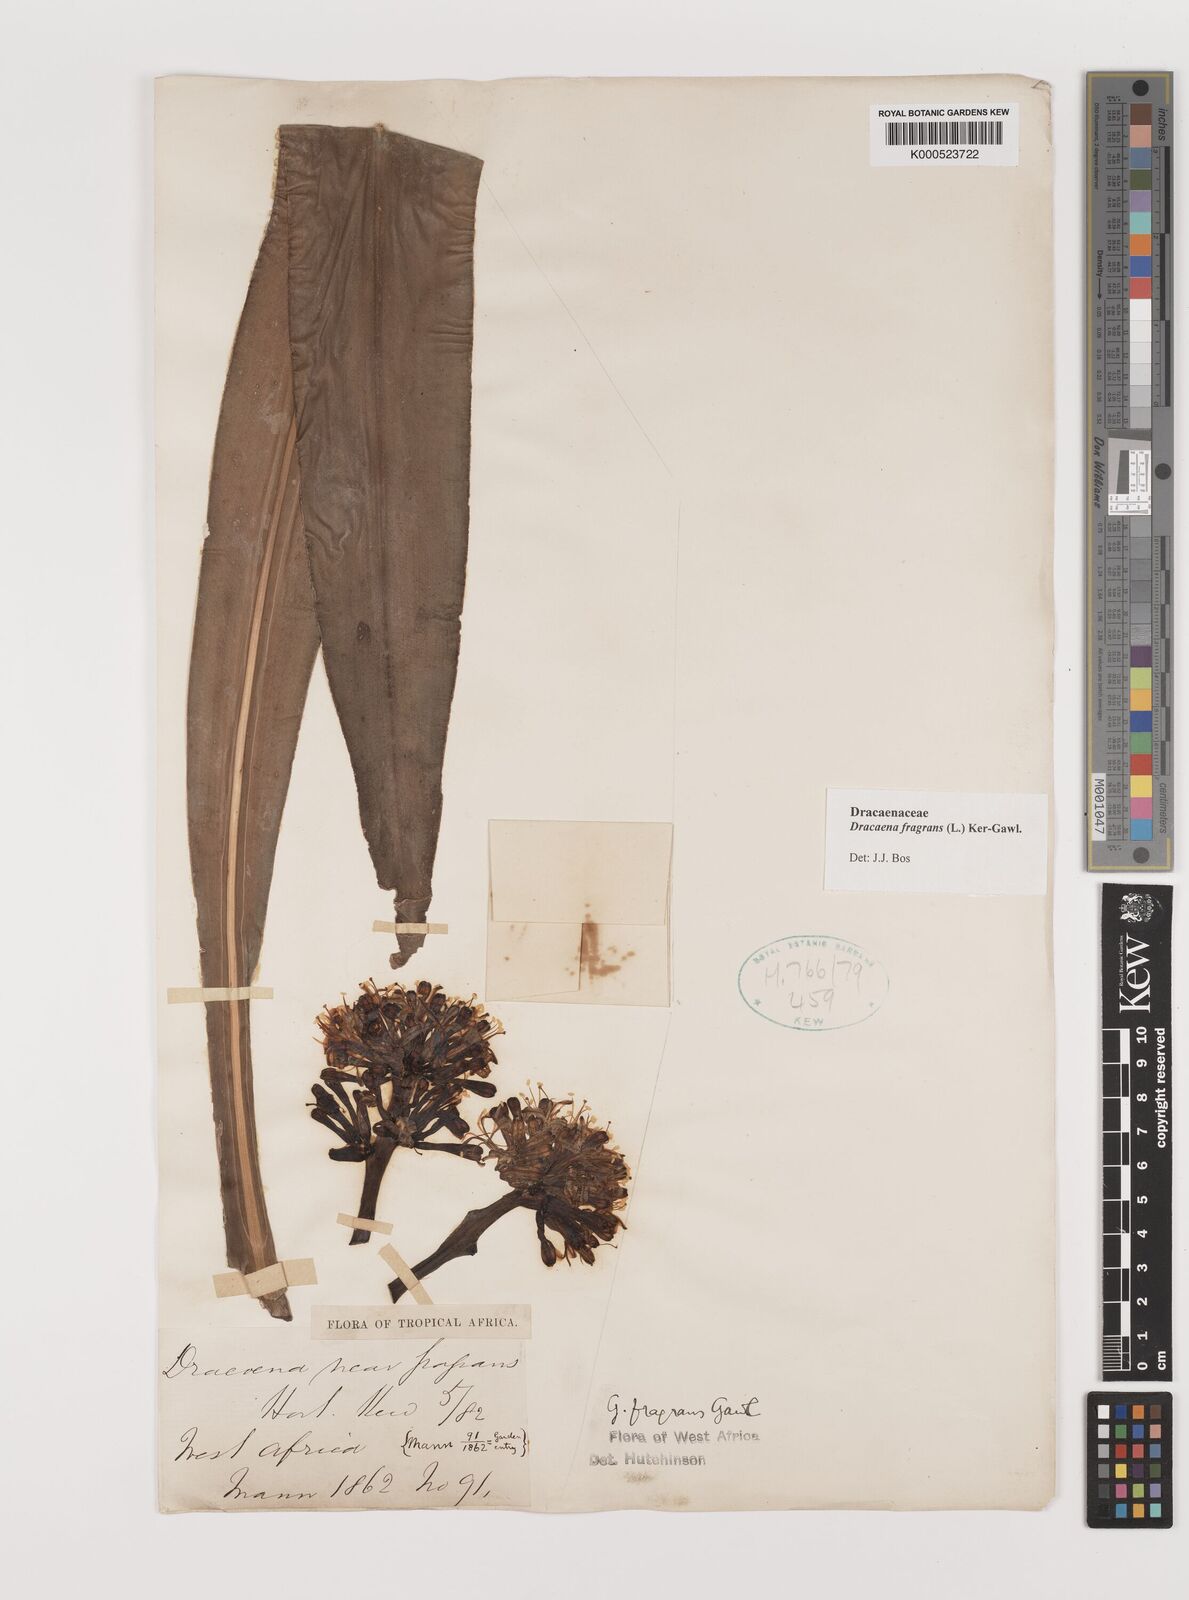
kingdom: Plantae
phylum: Tracheophyta
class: Liliopsida
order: Asparagales
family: Asparagaceae
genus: Dracaena
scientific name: Dracaena fragrans
